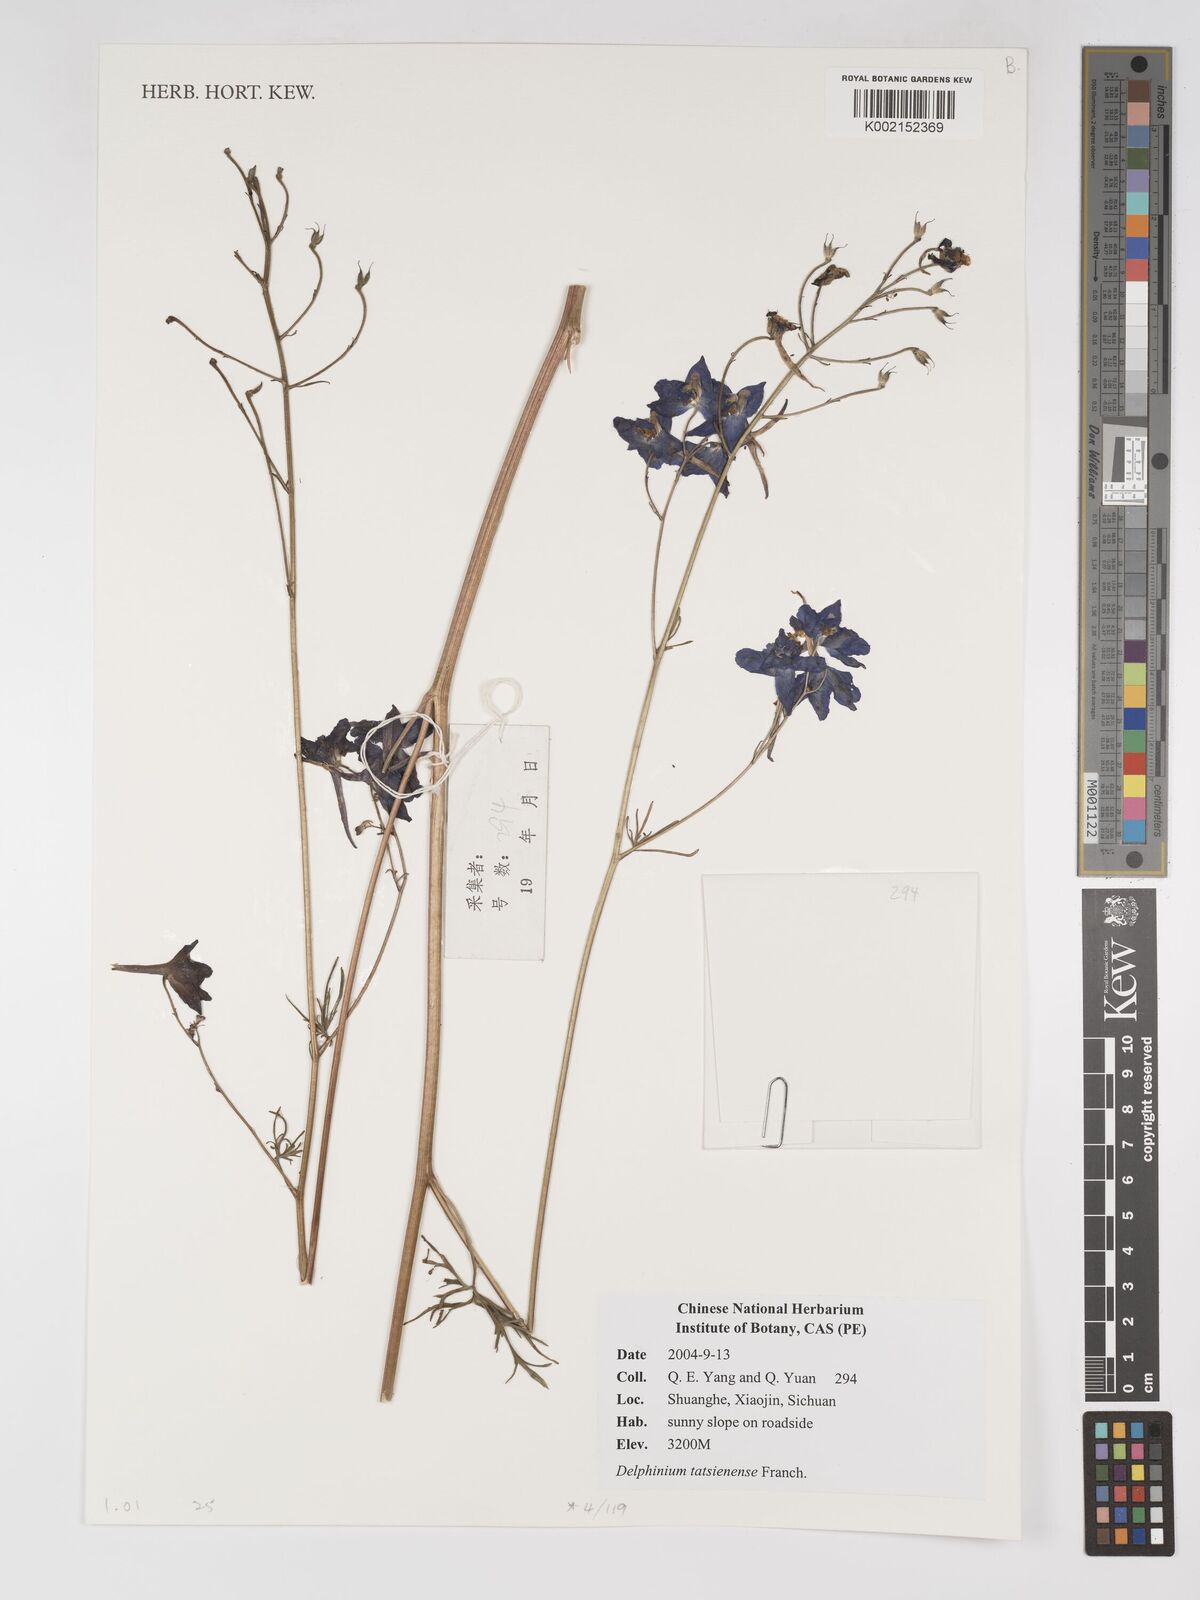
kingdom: Plantae
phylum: Tracheophyta
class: Magnoliopsida
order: Ranunculales
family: Ranunculaceae
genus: Delphinium
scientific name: Delphinium tatsienense
